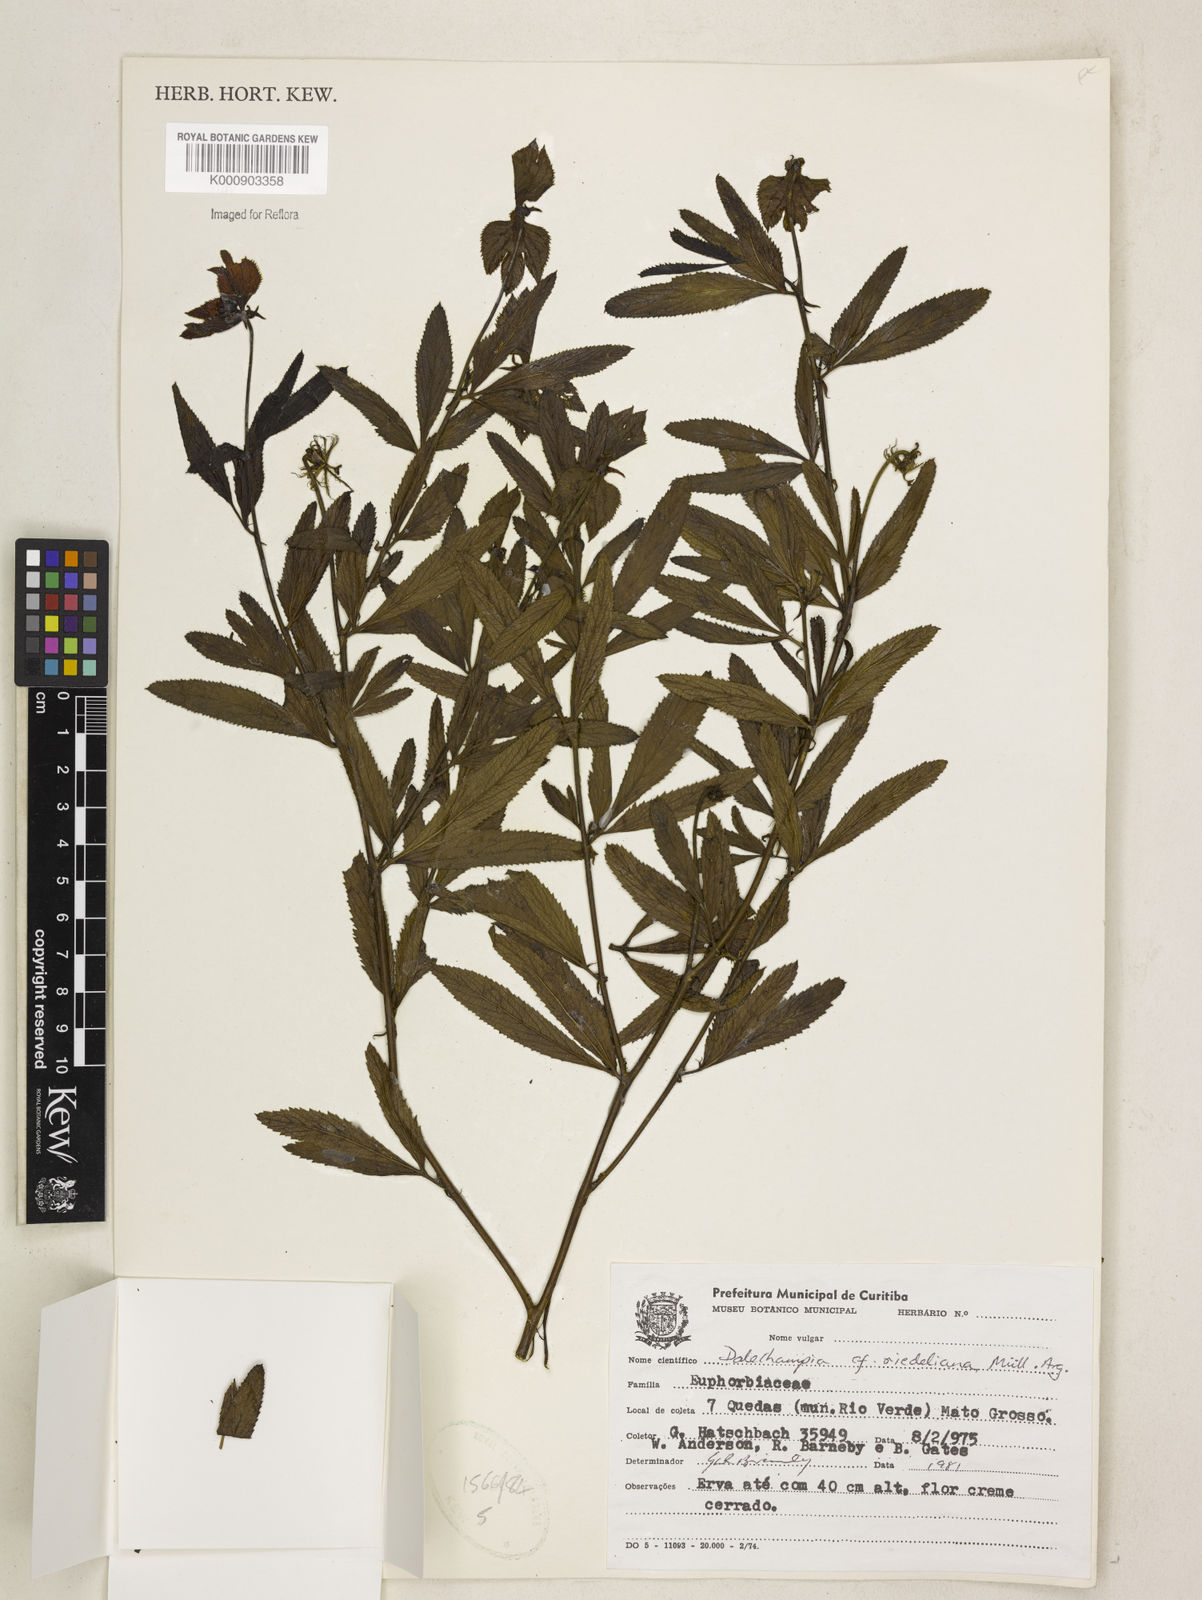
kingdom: Plantae
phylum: Tracheophyta
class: Magnoliopsida
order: Malpighiales
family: Euphorbiaceae
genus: Dalechampia
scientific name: Dalechampia
